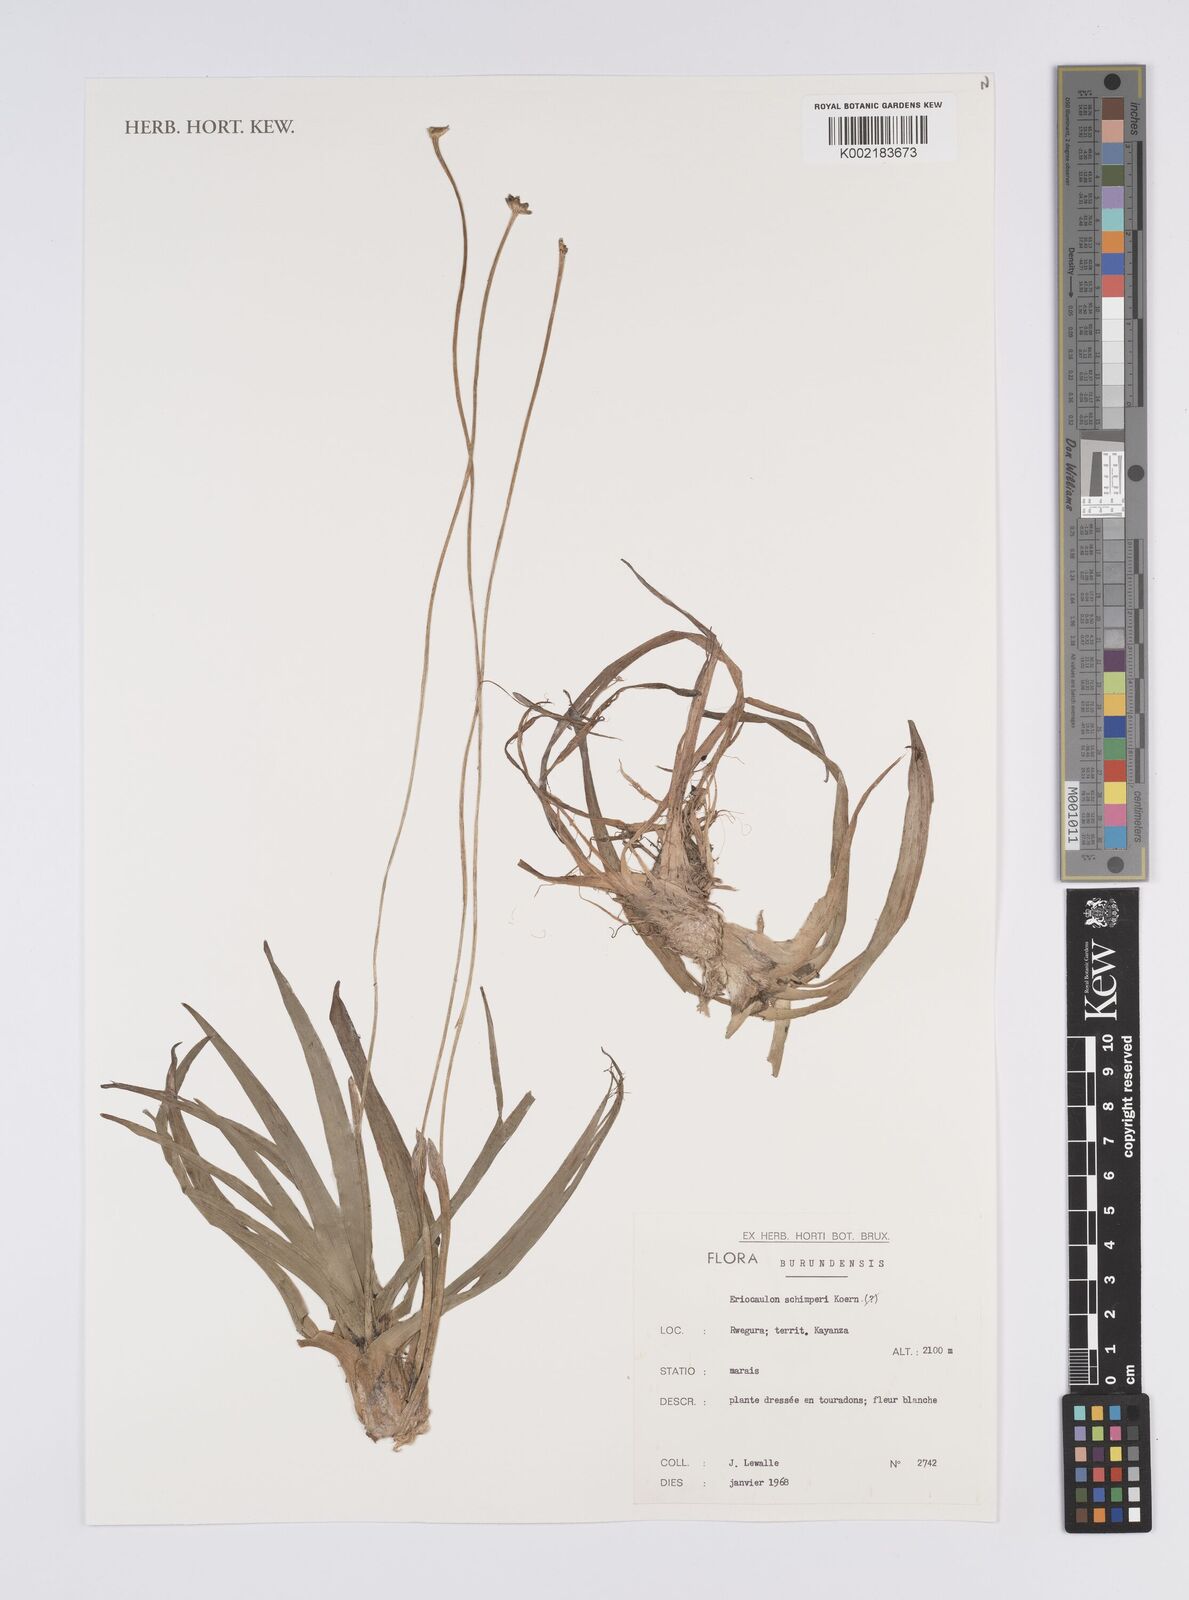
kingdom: Plantae
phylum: Tracheophyta
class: Liliopsida
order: Poales
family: Eriocaulaceae
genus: Eriocaulon
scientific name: Eriocaulon schimperi
